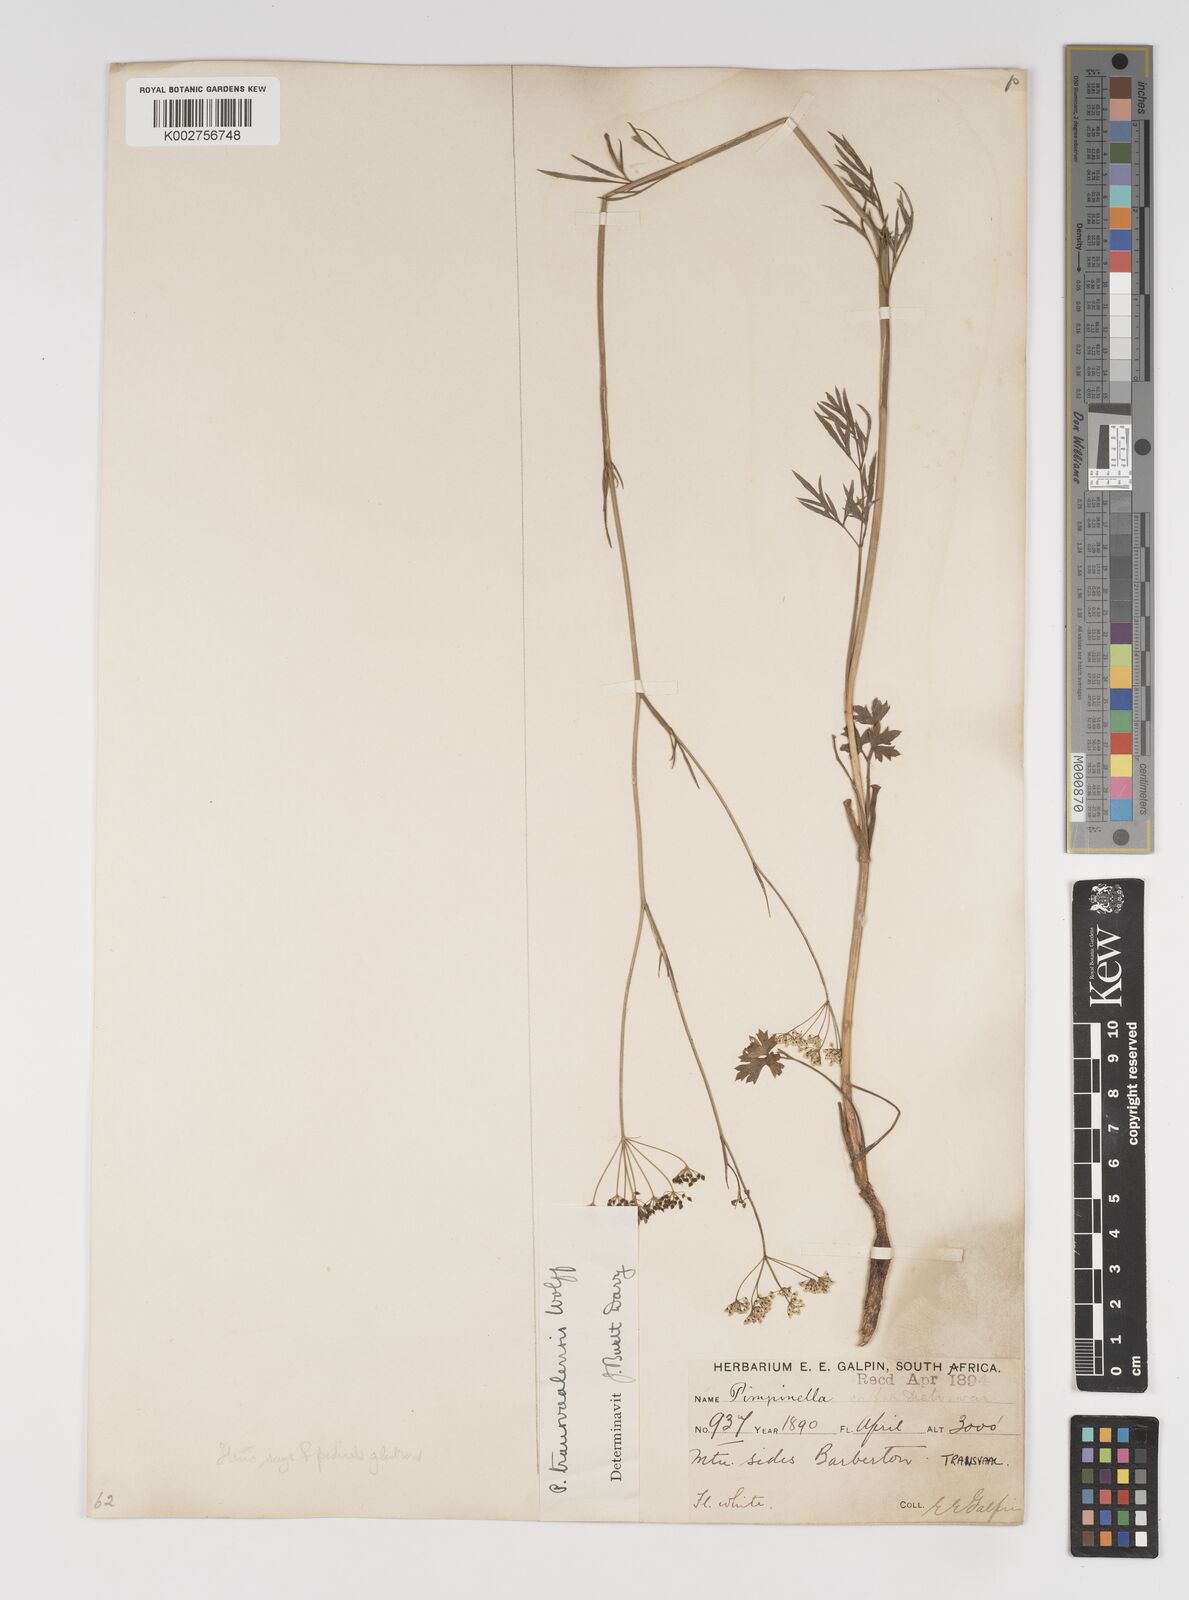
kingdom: Plantae
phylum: Tracheophyta
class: Magnoliopsida
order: Apiales
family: Apiaceae
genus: Pimpinella
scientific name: Pimpinella transvaalensis
